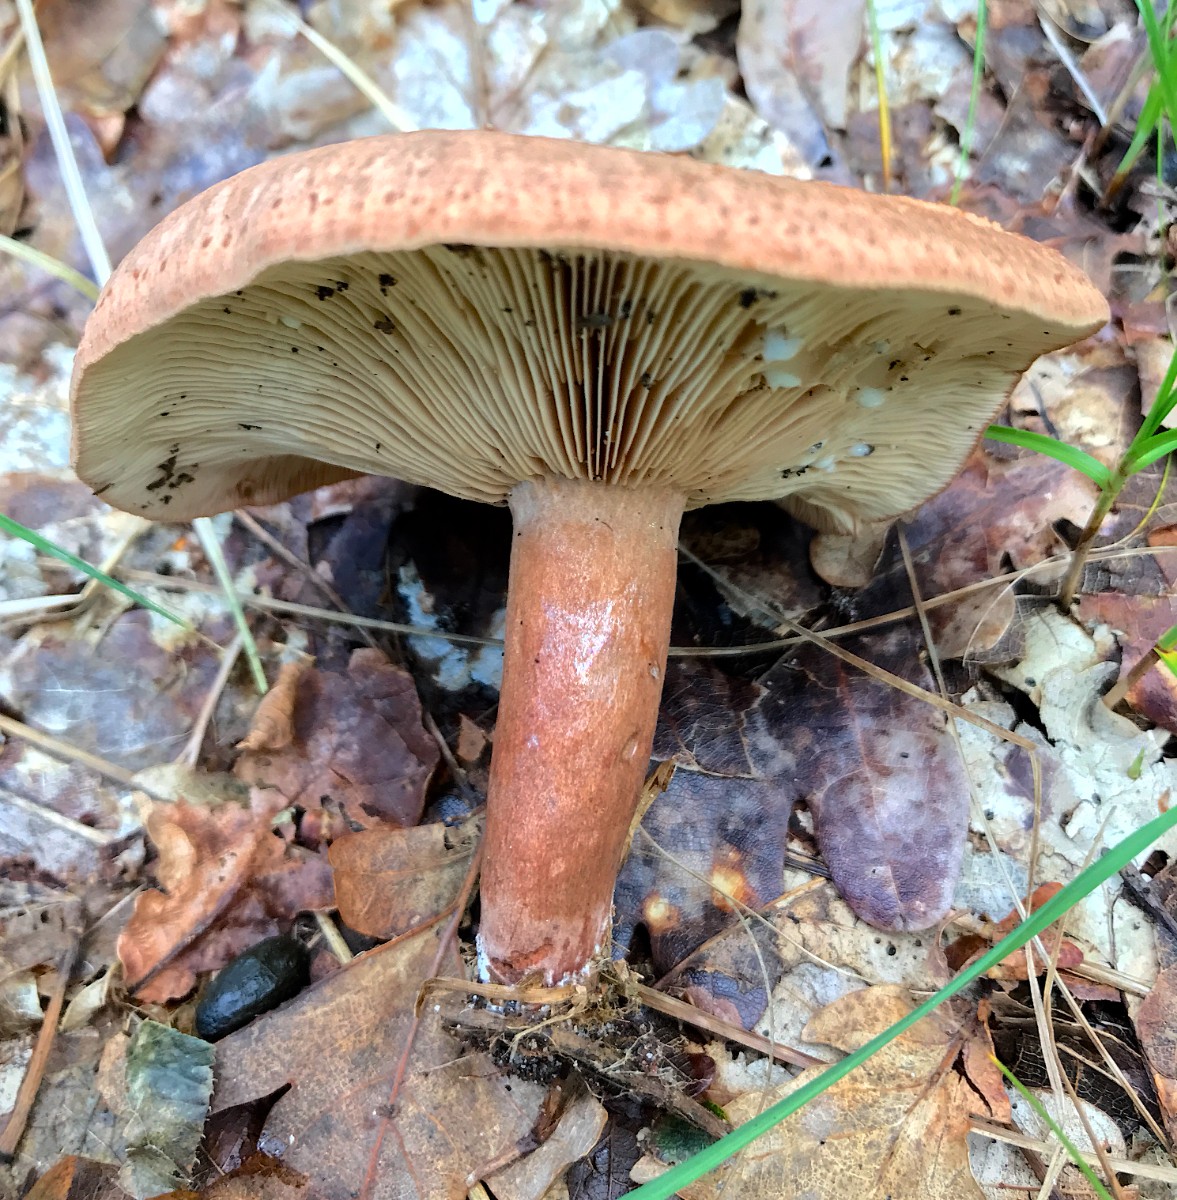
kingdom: Fungi
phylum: Basidiomycota
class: Agaricomycetes
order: Russulales
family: Russulaceae
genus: Lactarius
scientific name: Lactarius quietus
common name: ege-mælkehat
